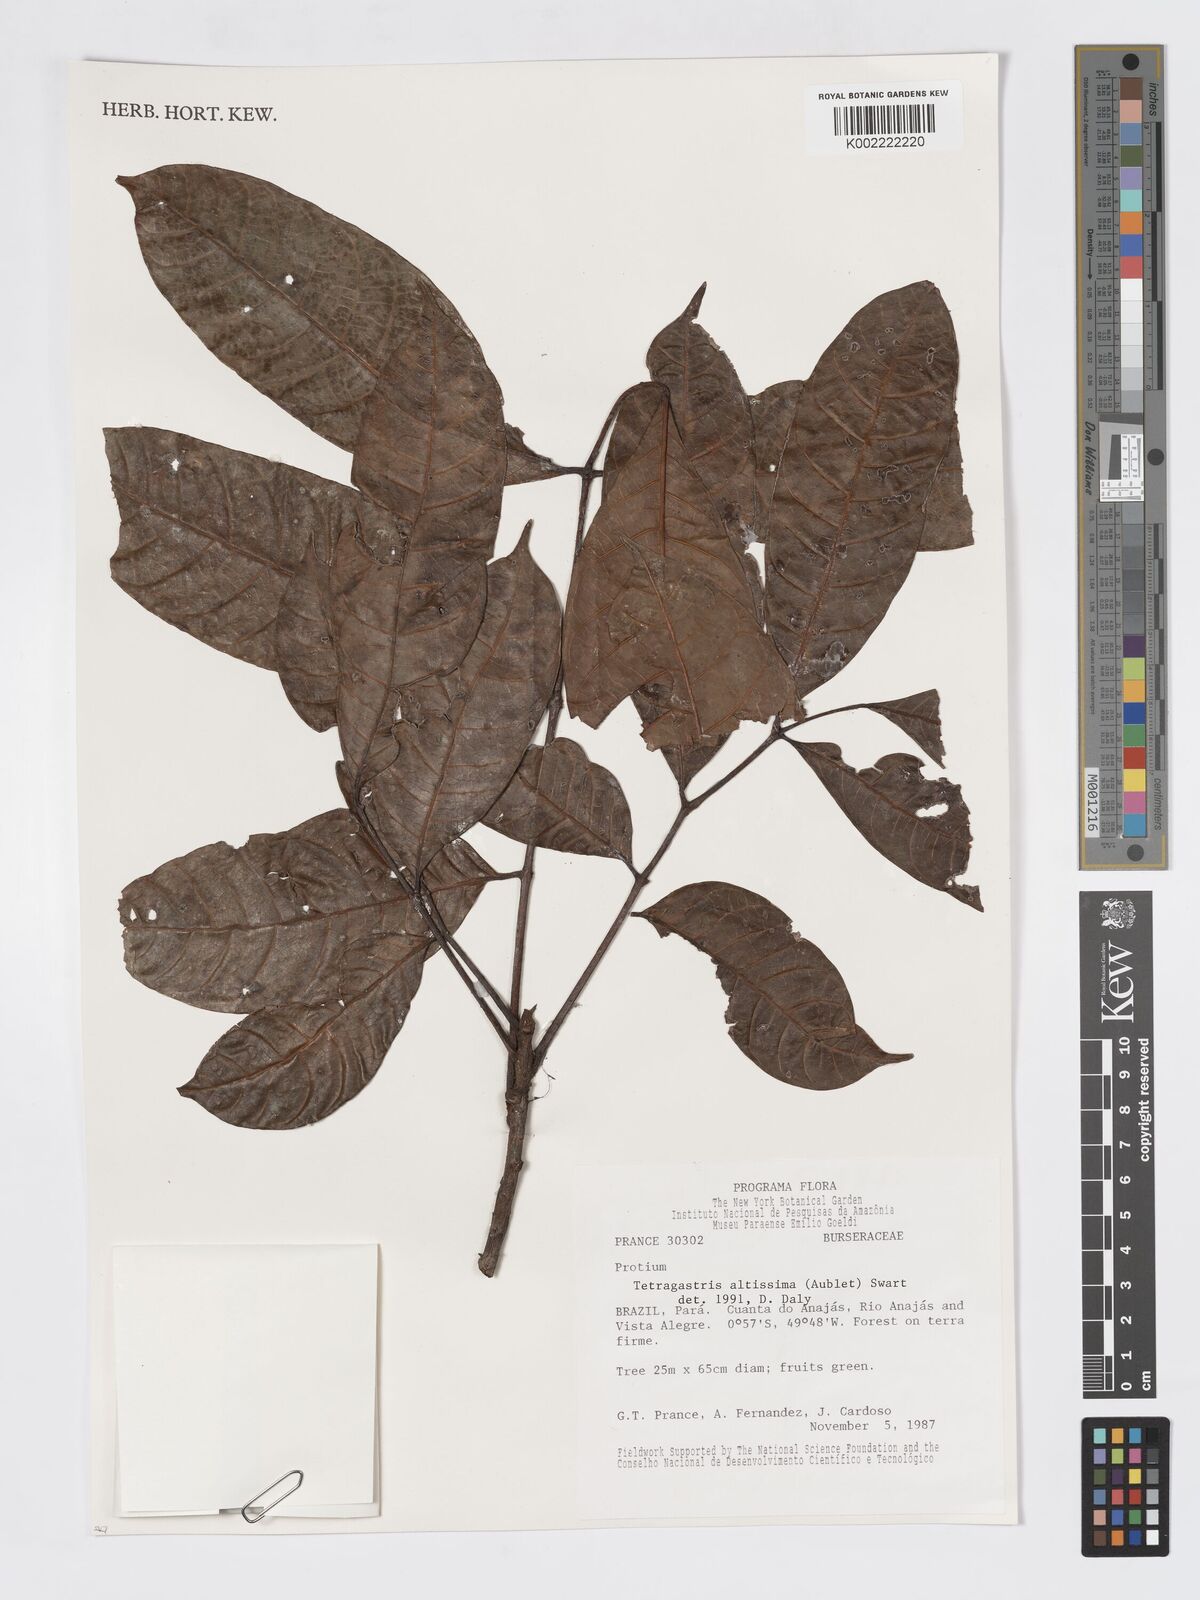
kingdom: Plantae
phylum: Tracheophyta
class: Magnoliopsida
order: Sapindales
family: Burseraceae
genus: Tetragastris
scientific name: Tetragastris altissima
